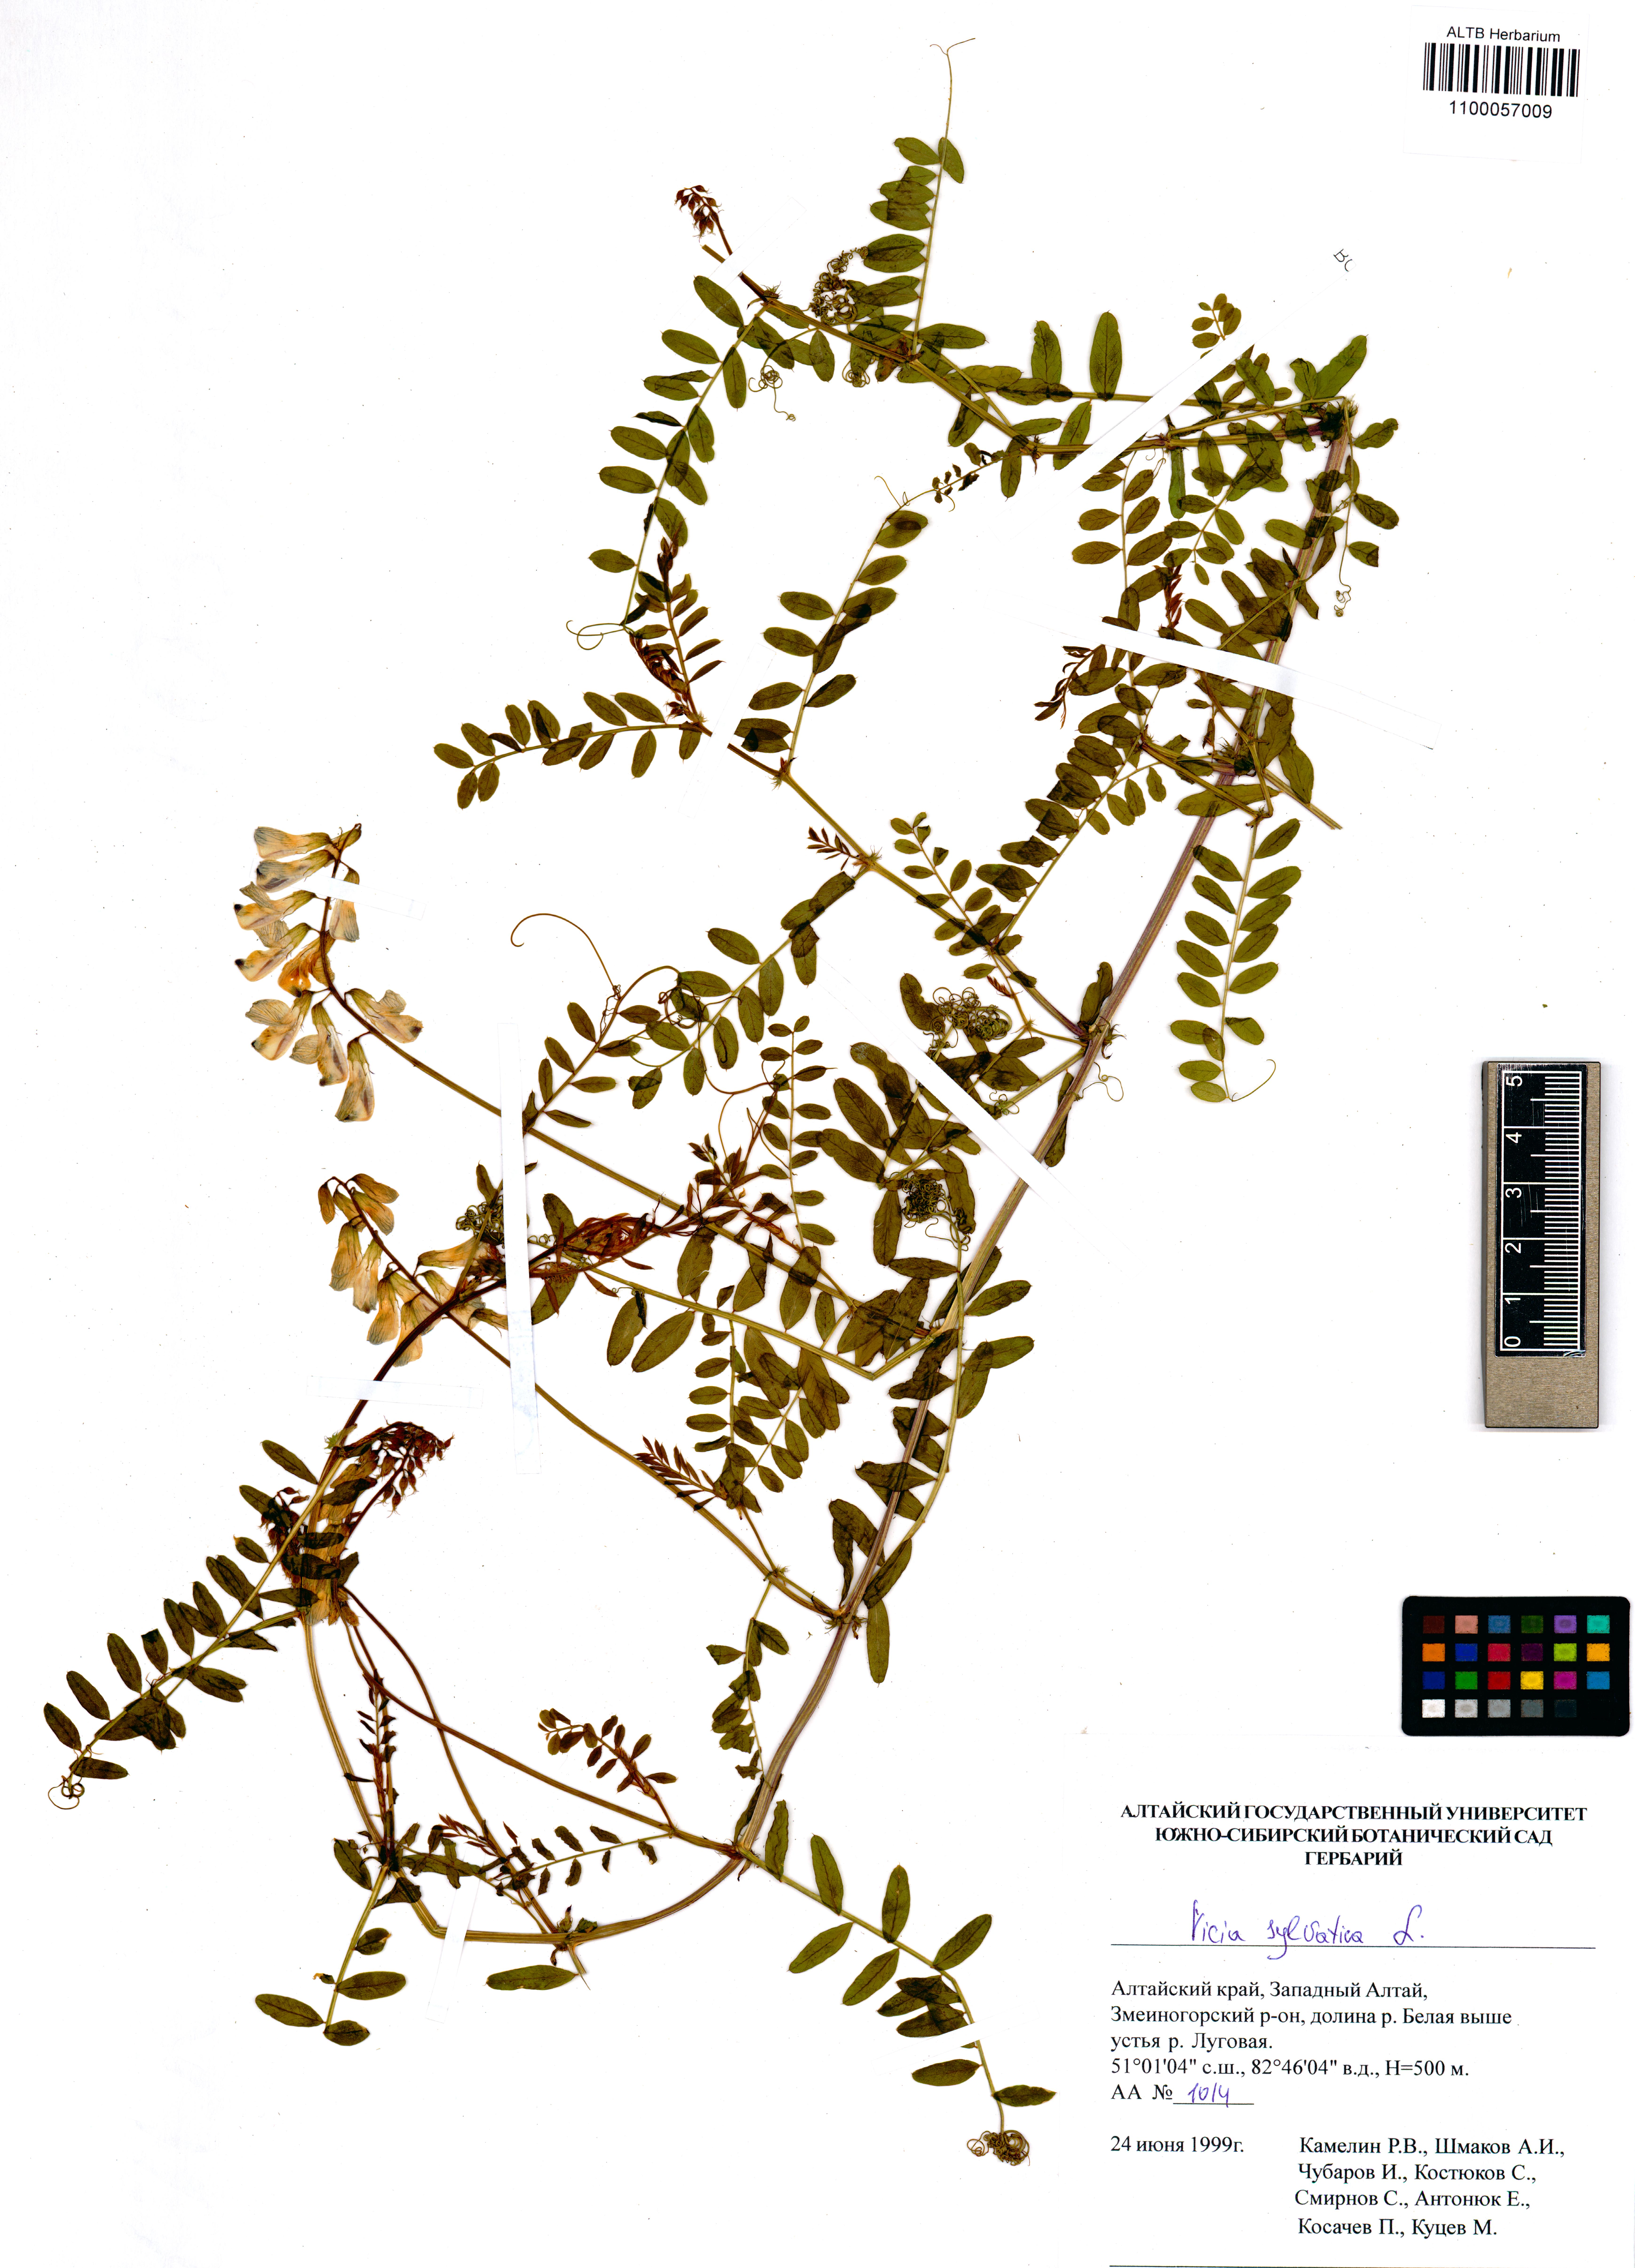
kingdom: Plantae
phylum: Tracheophyta
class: Magnoliopsida
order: Fabales
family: Fabaceae
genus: Vicia
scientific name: Vicia sylvatica
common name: Wood vetch
